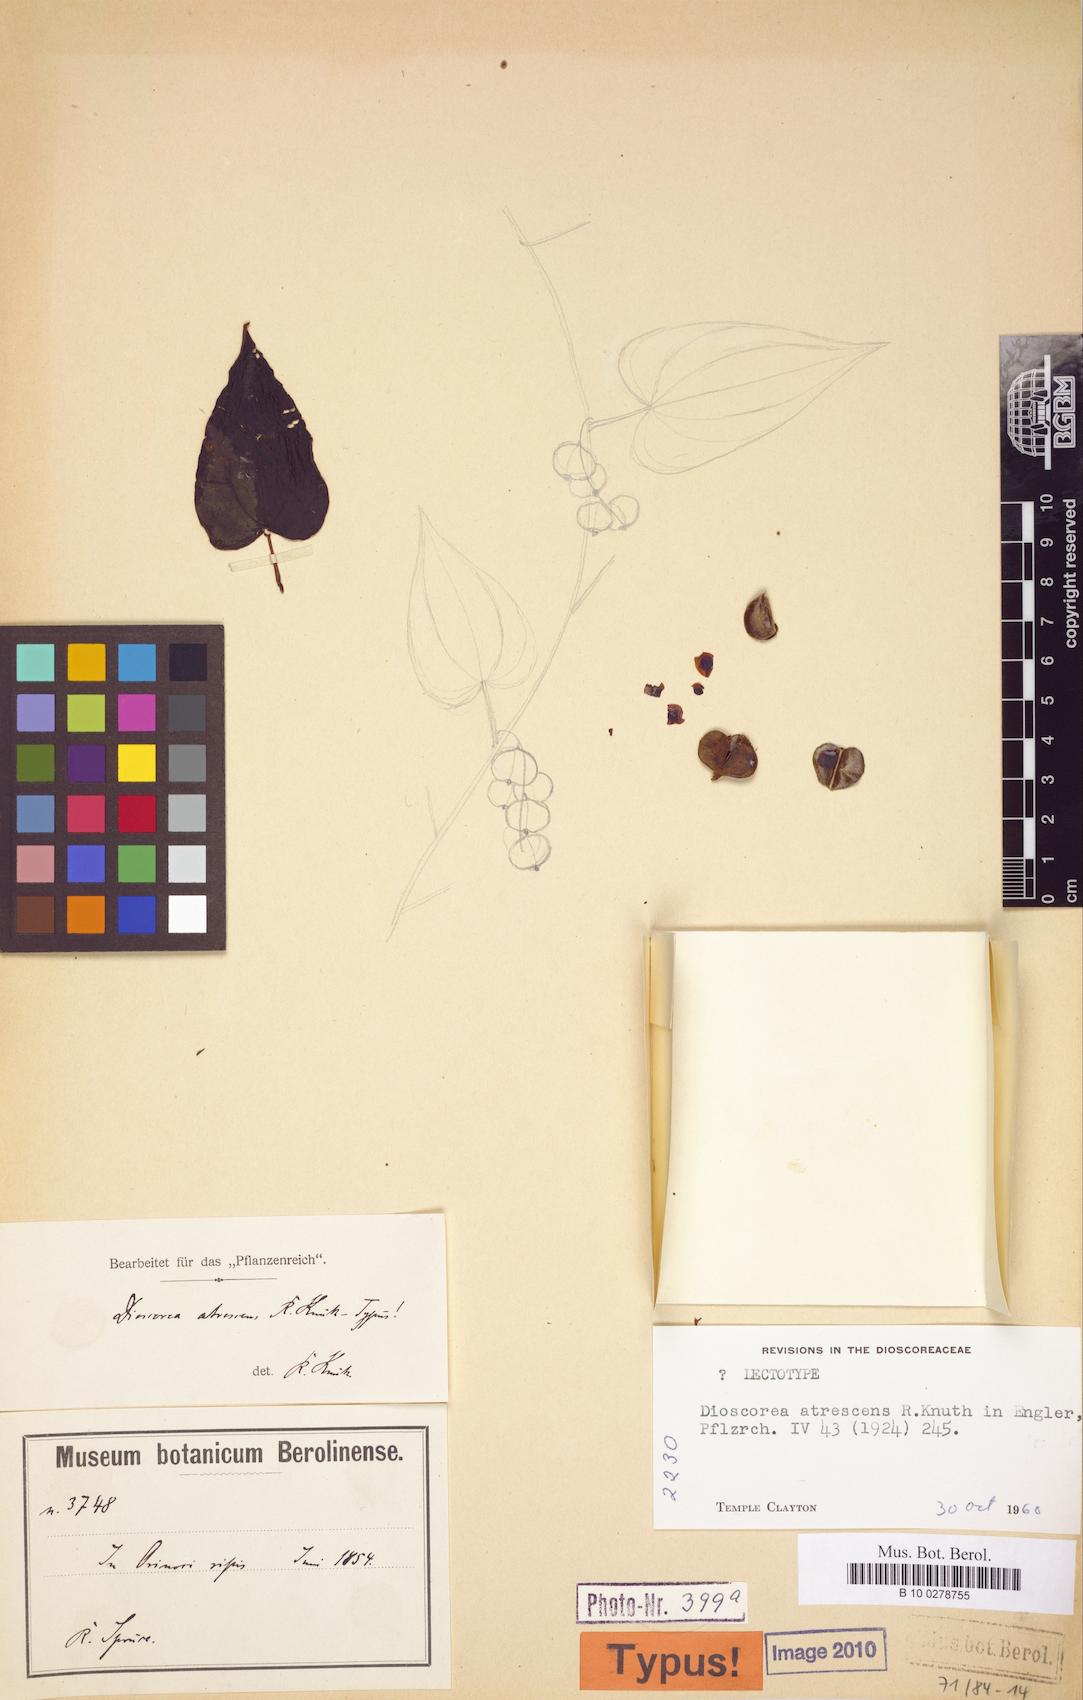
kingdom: Plantae
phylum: Tracheophyta
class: Liliopsida
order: Dioscoreales
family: Dioscoreaceae
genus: Dioscorea
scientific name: Dioscorea atrescens
